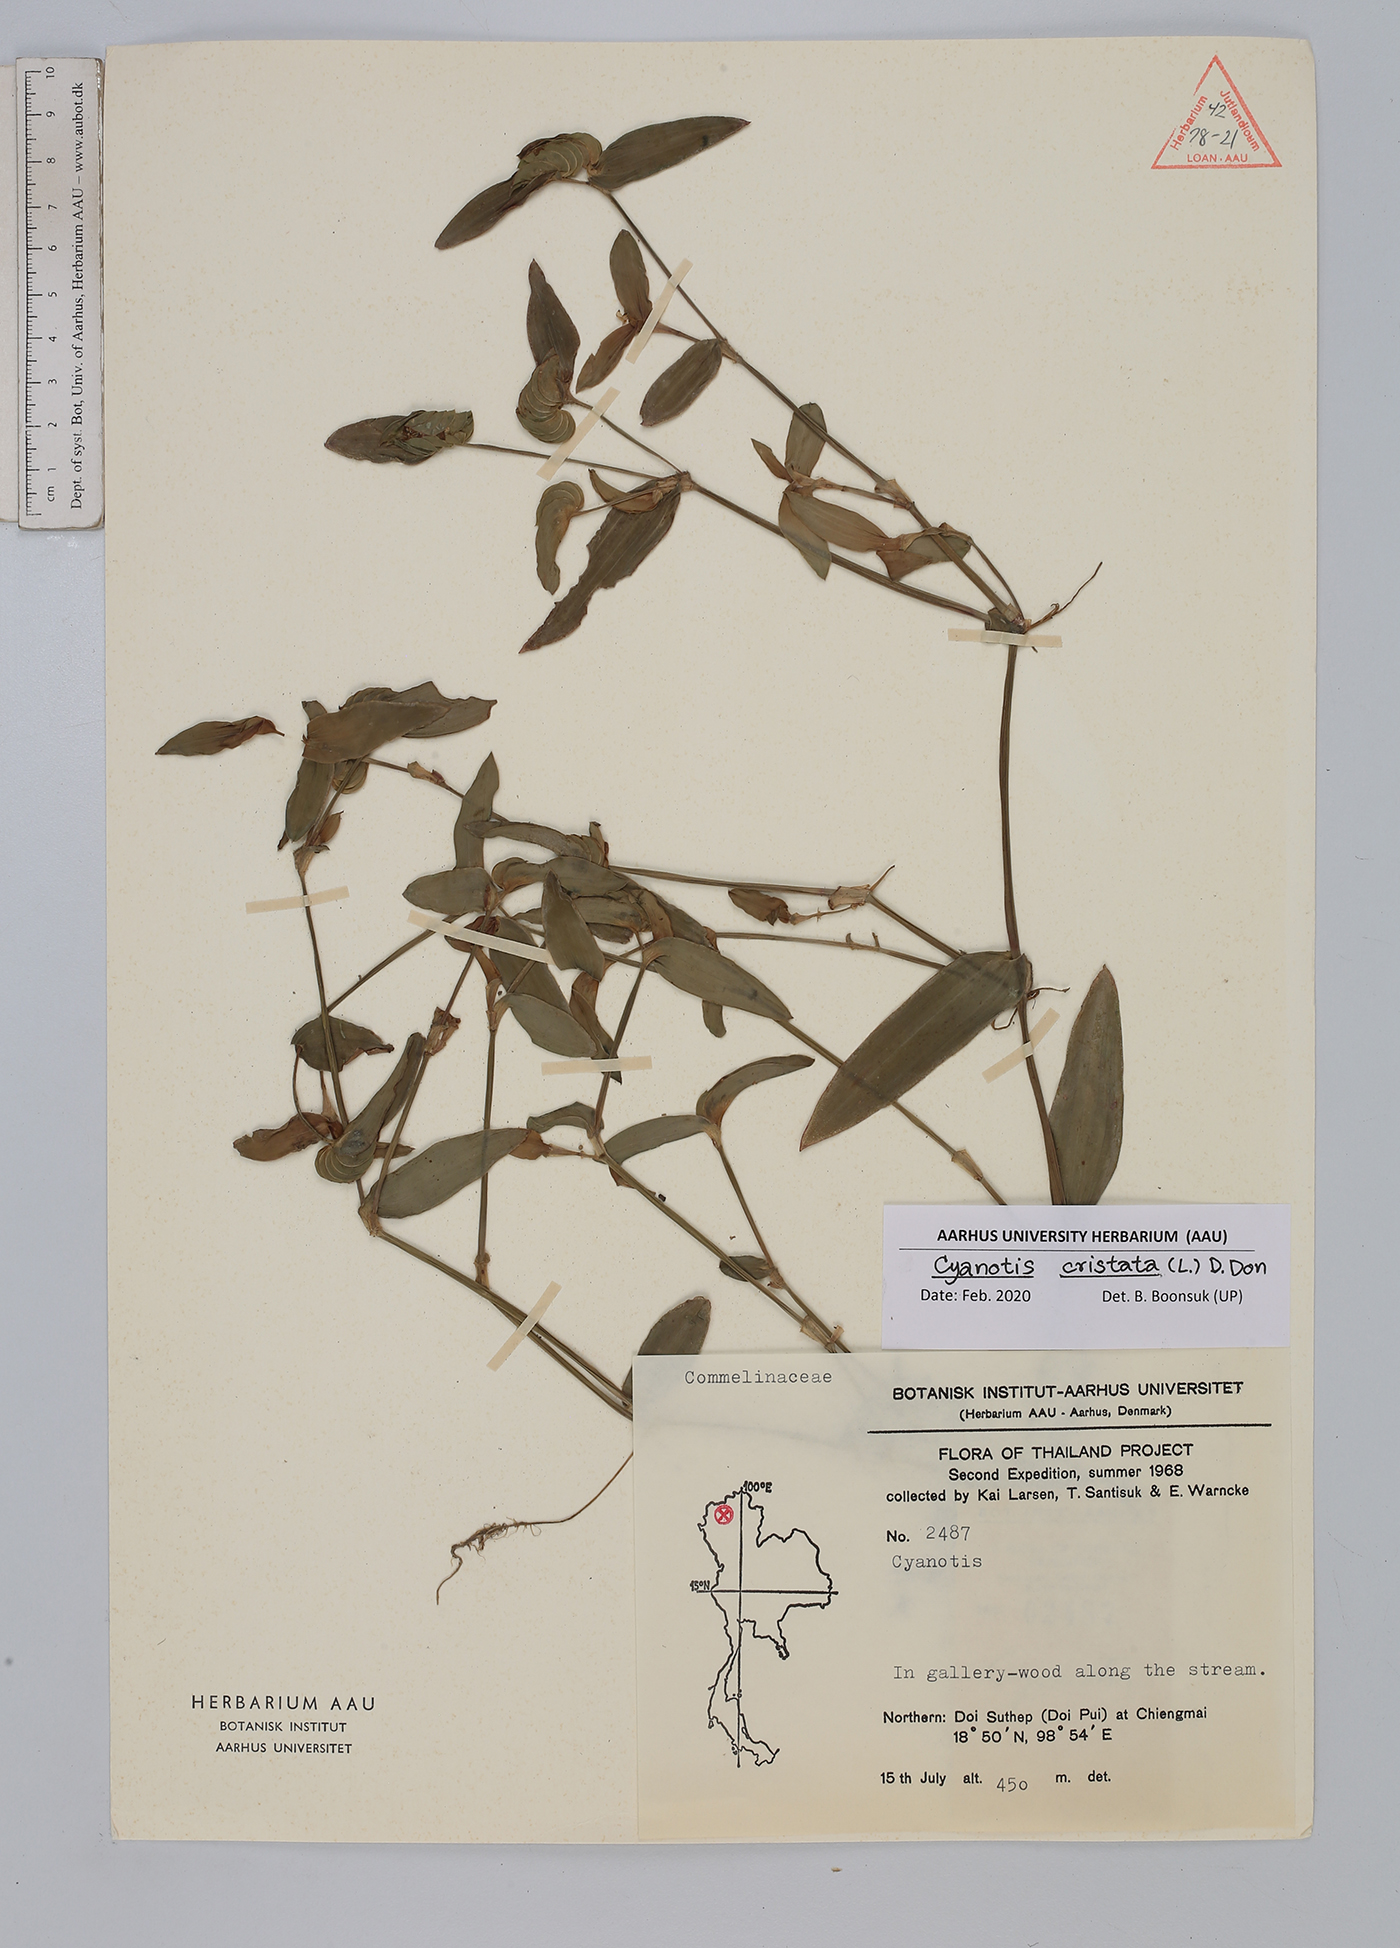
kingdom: Plantae
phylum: Tracheophyta
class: Liliopsida
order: Commelinales
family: Commelinaceae
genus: Cyanotis
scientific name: Cyanotis cristata
